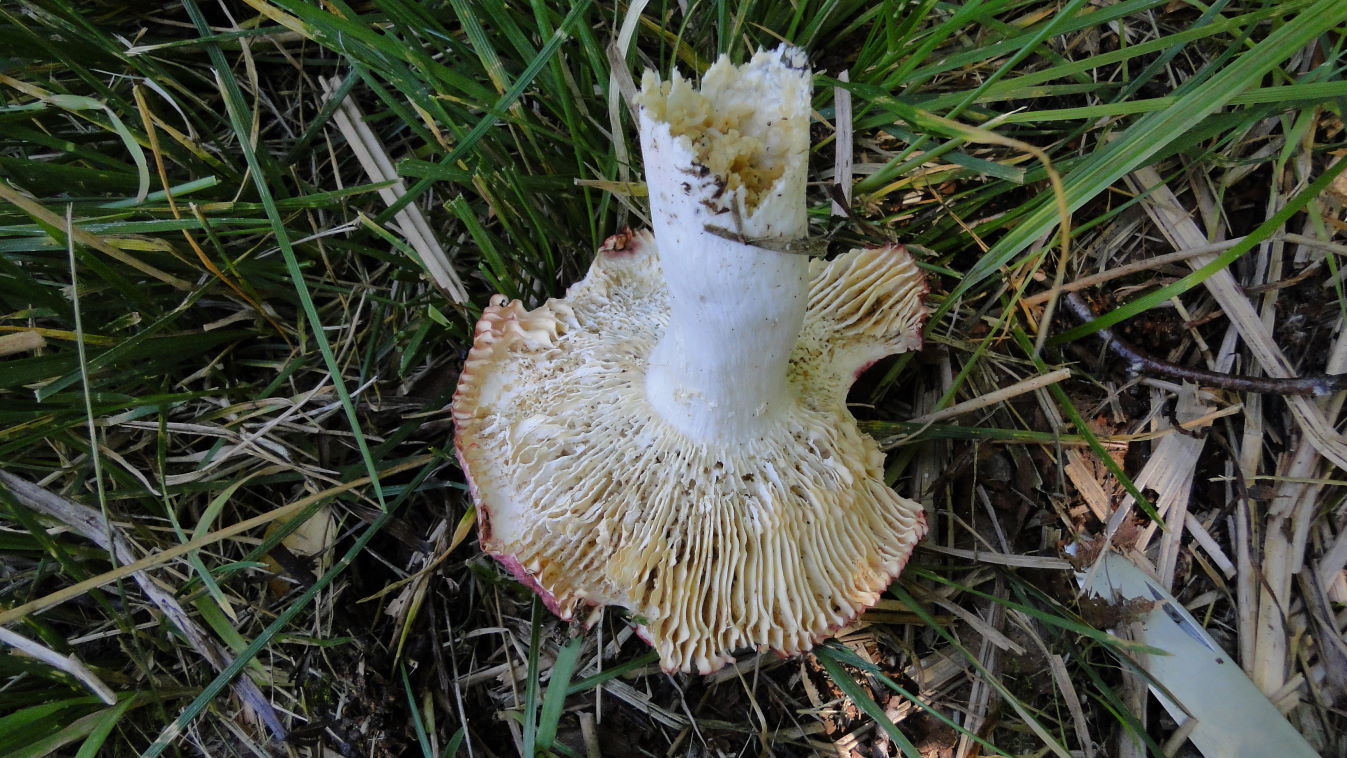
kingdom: Fungi
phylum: Basidiomycota
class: Agaricomycetes
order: Russulales
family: Russulaceae
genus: Russula
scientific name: Russula velenovskyi
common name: orangerød skørhat
